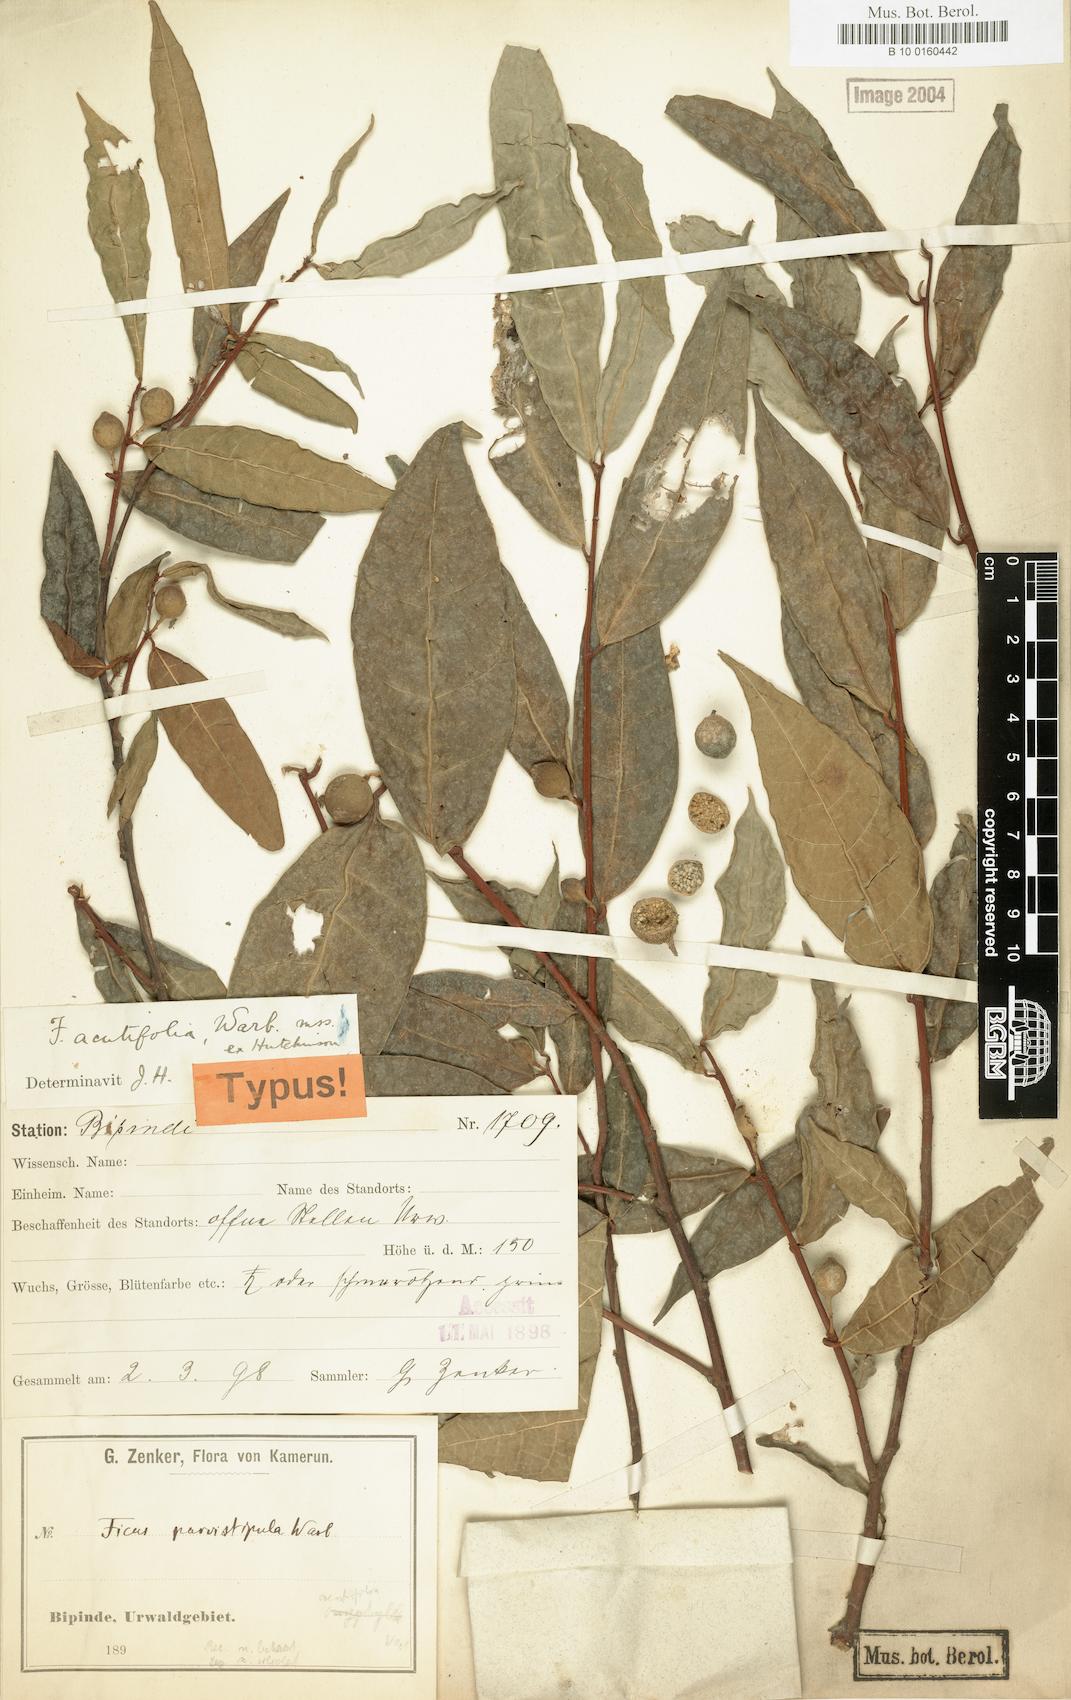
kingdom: Plantae
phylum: Tracheophyta
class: Magnoliopsida
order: Rosales
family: Moraceae
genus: Ficus
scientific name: Ficus asperifolia
